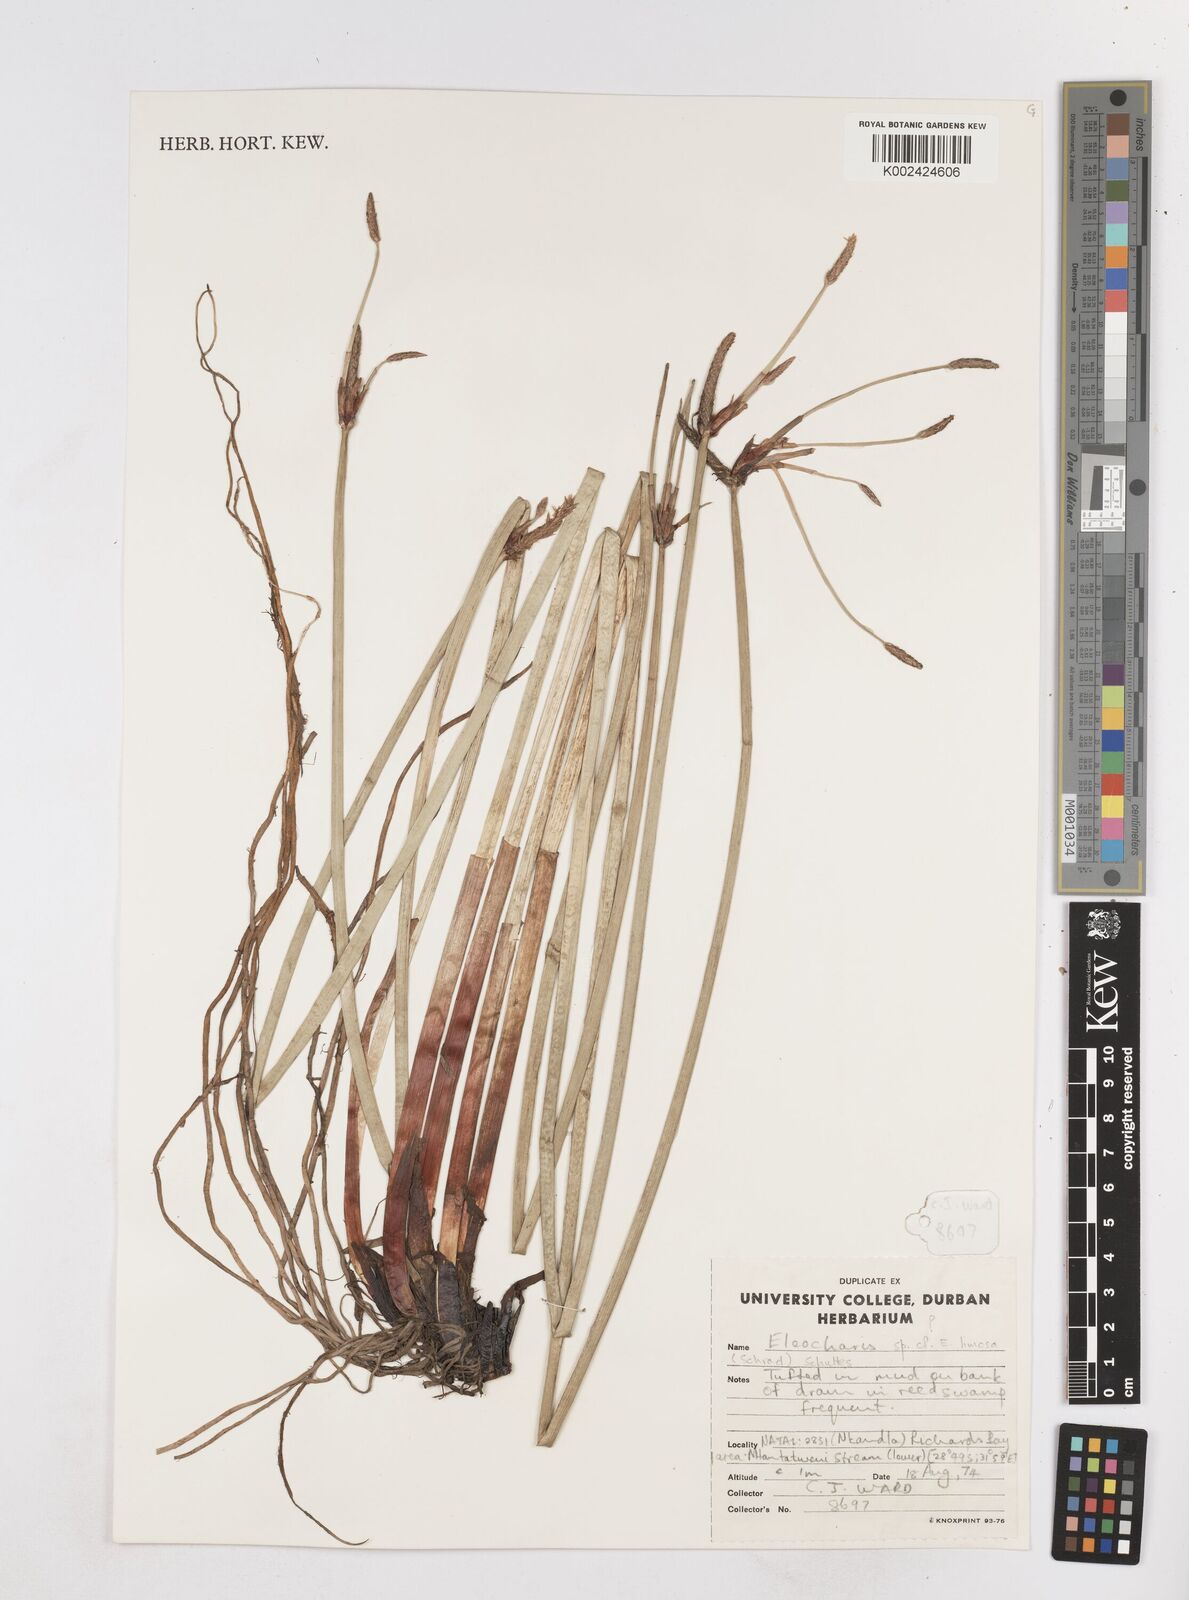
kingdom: Plantae
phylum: Tracheophyta
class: Liliopsida
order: Poales
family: Cyperaceae
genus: Eleocharis
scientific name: Eleocharis limosa
